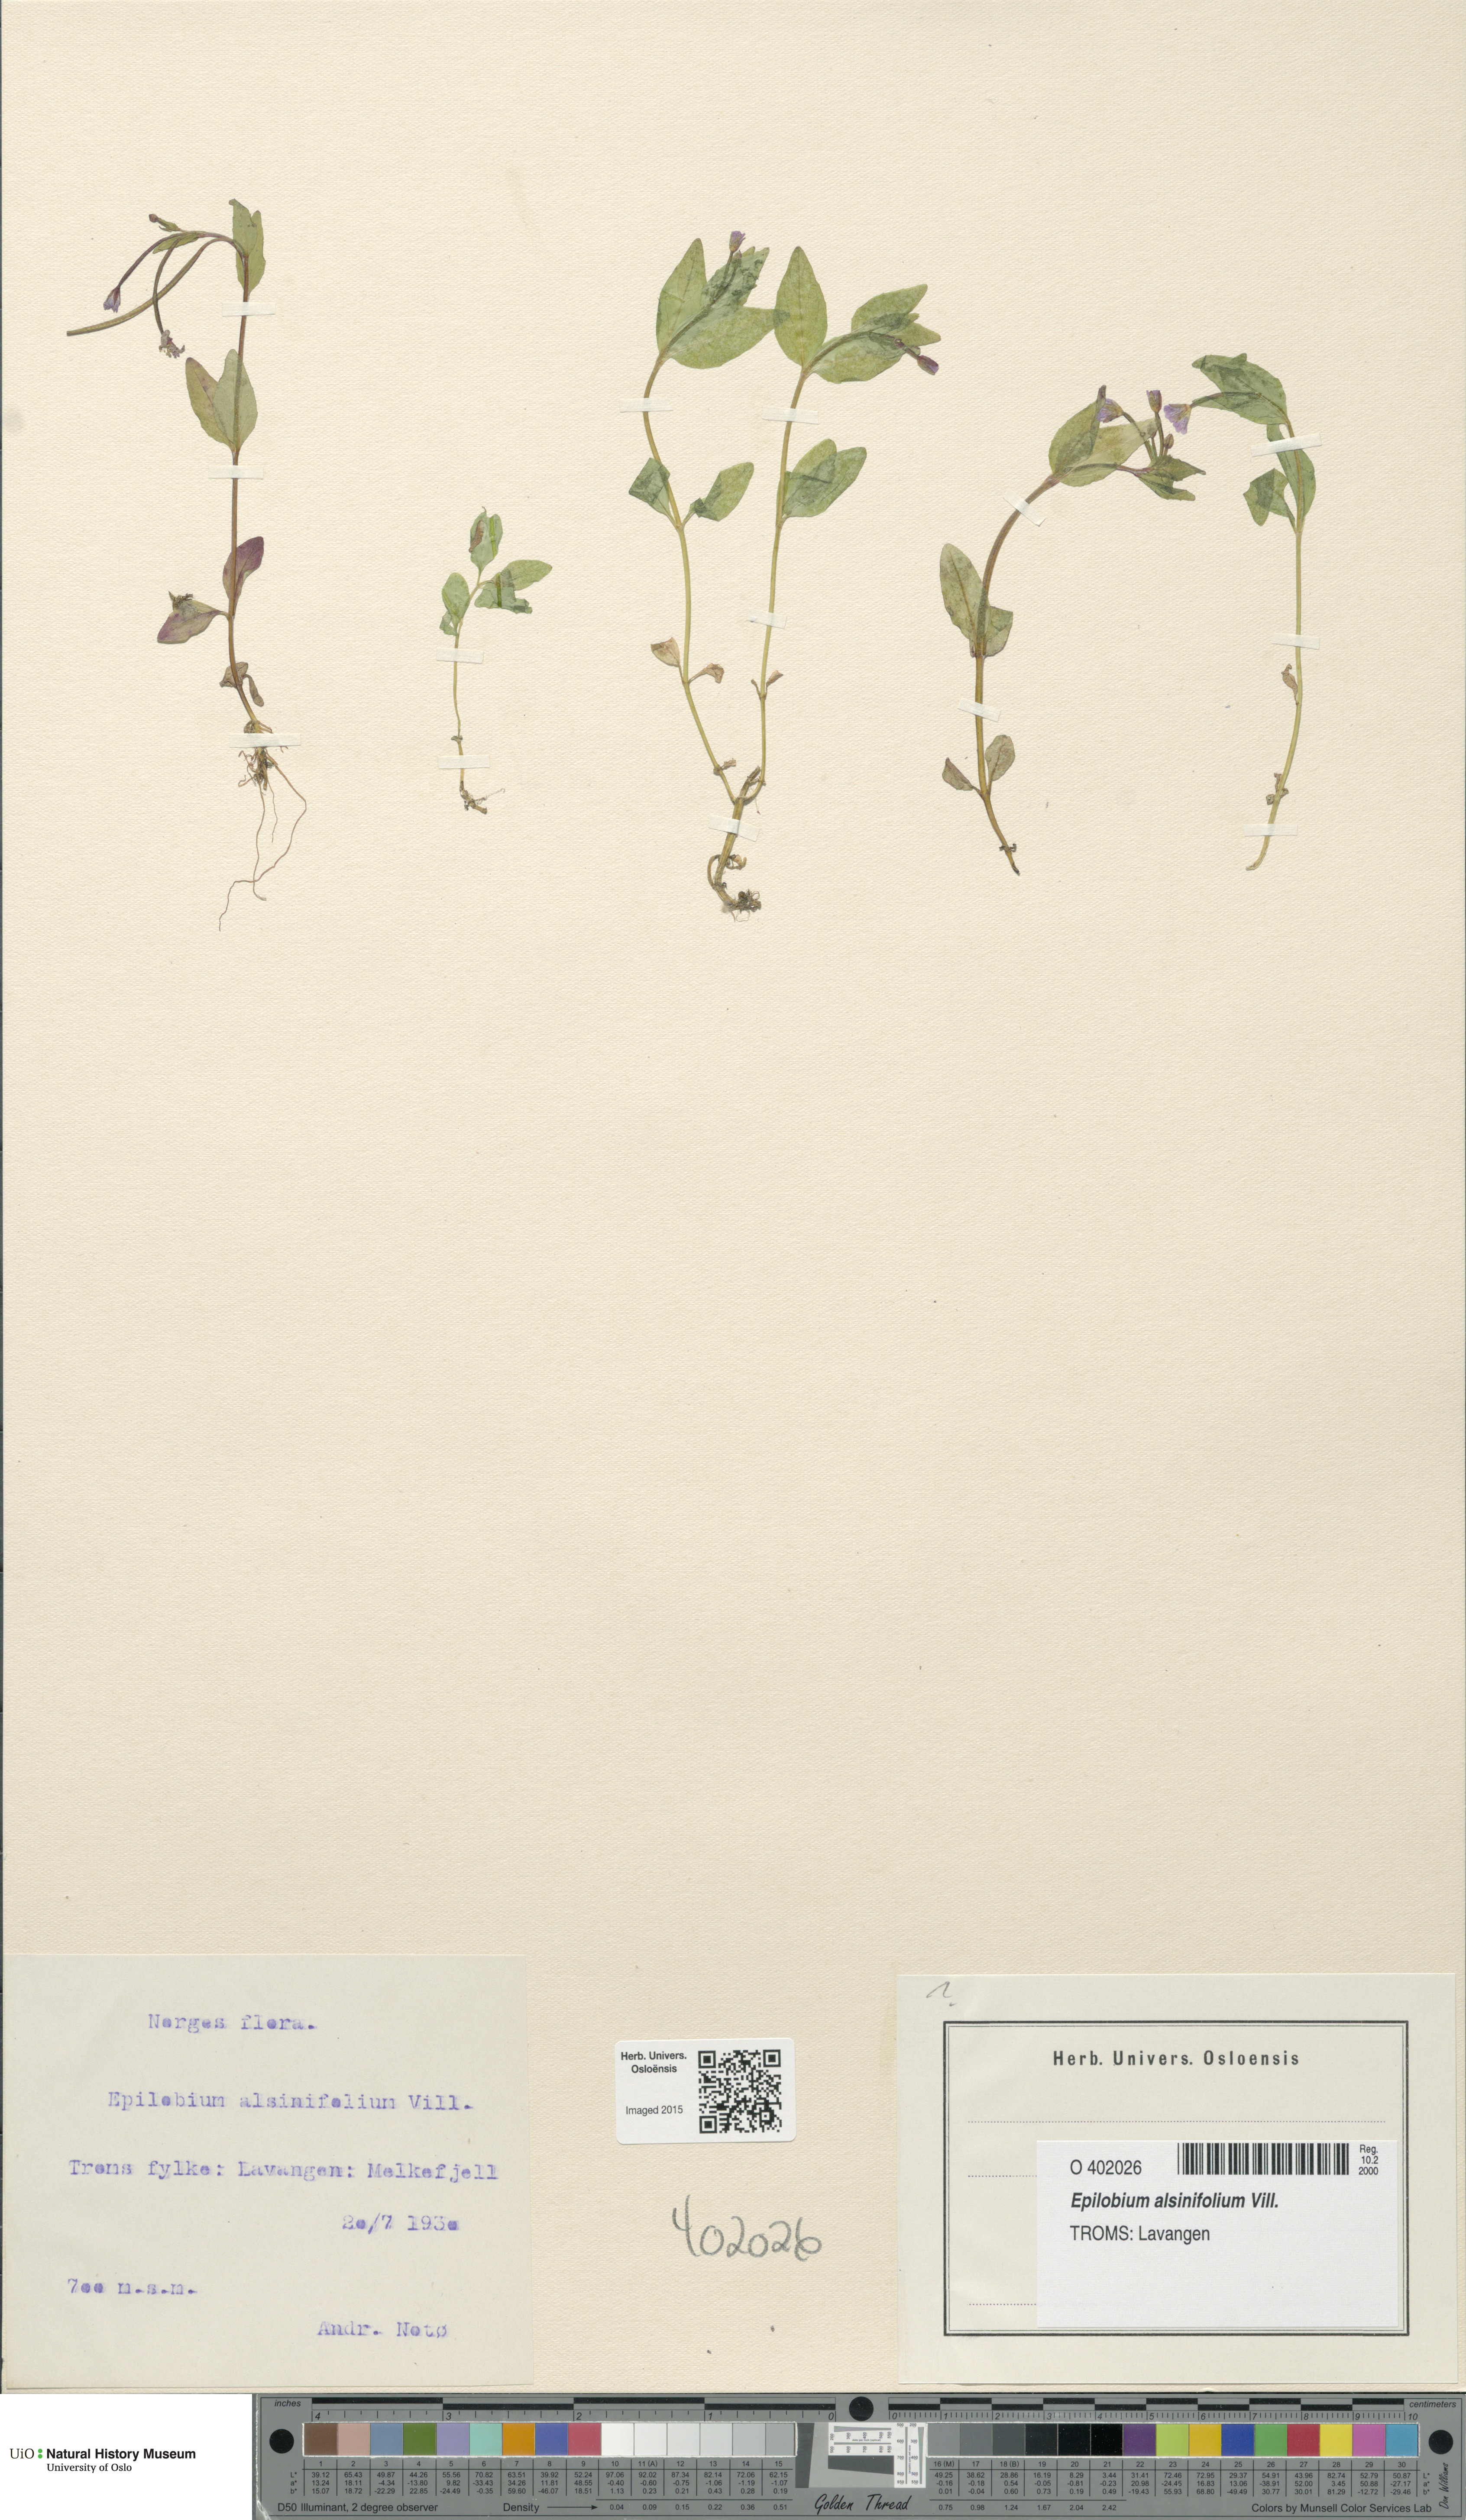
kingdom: Plantae
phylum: Tracheophyta
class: Magnoliopsida
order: Myrtales
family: Onagraceae
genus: Epilobium
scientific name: Epilobium alsinifolium
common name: Chickweed willowherb
